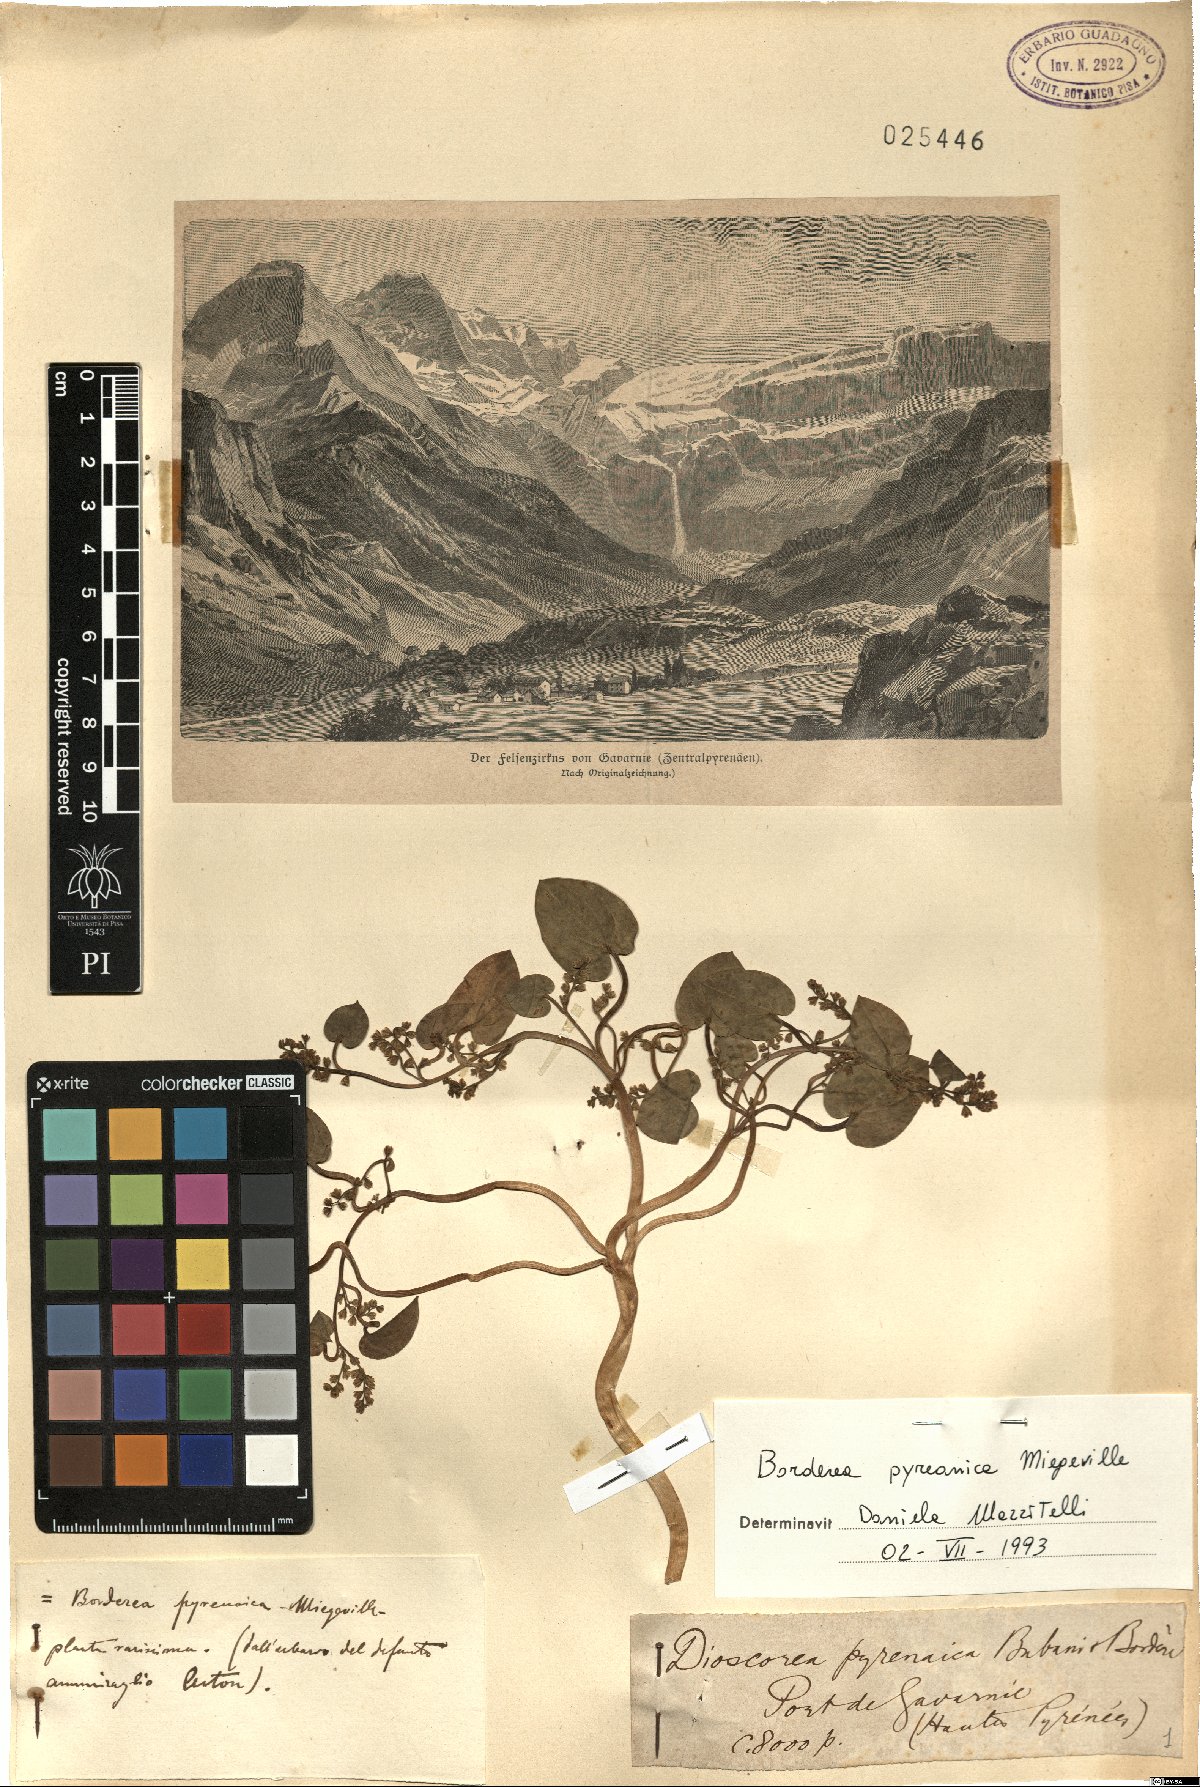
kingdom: Plantae
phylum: Tracheophyta
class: Liliopsida
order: Dioscoreales
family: Dioscoreaceae
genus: Dioscorea
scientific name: Dioscorea pyrenaica
